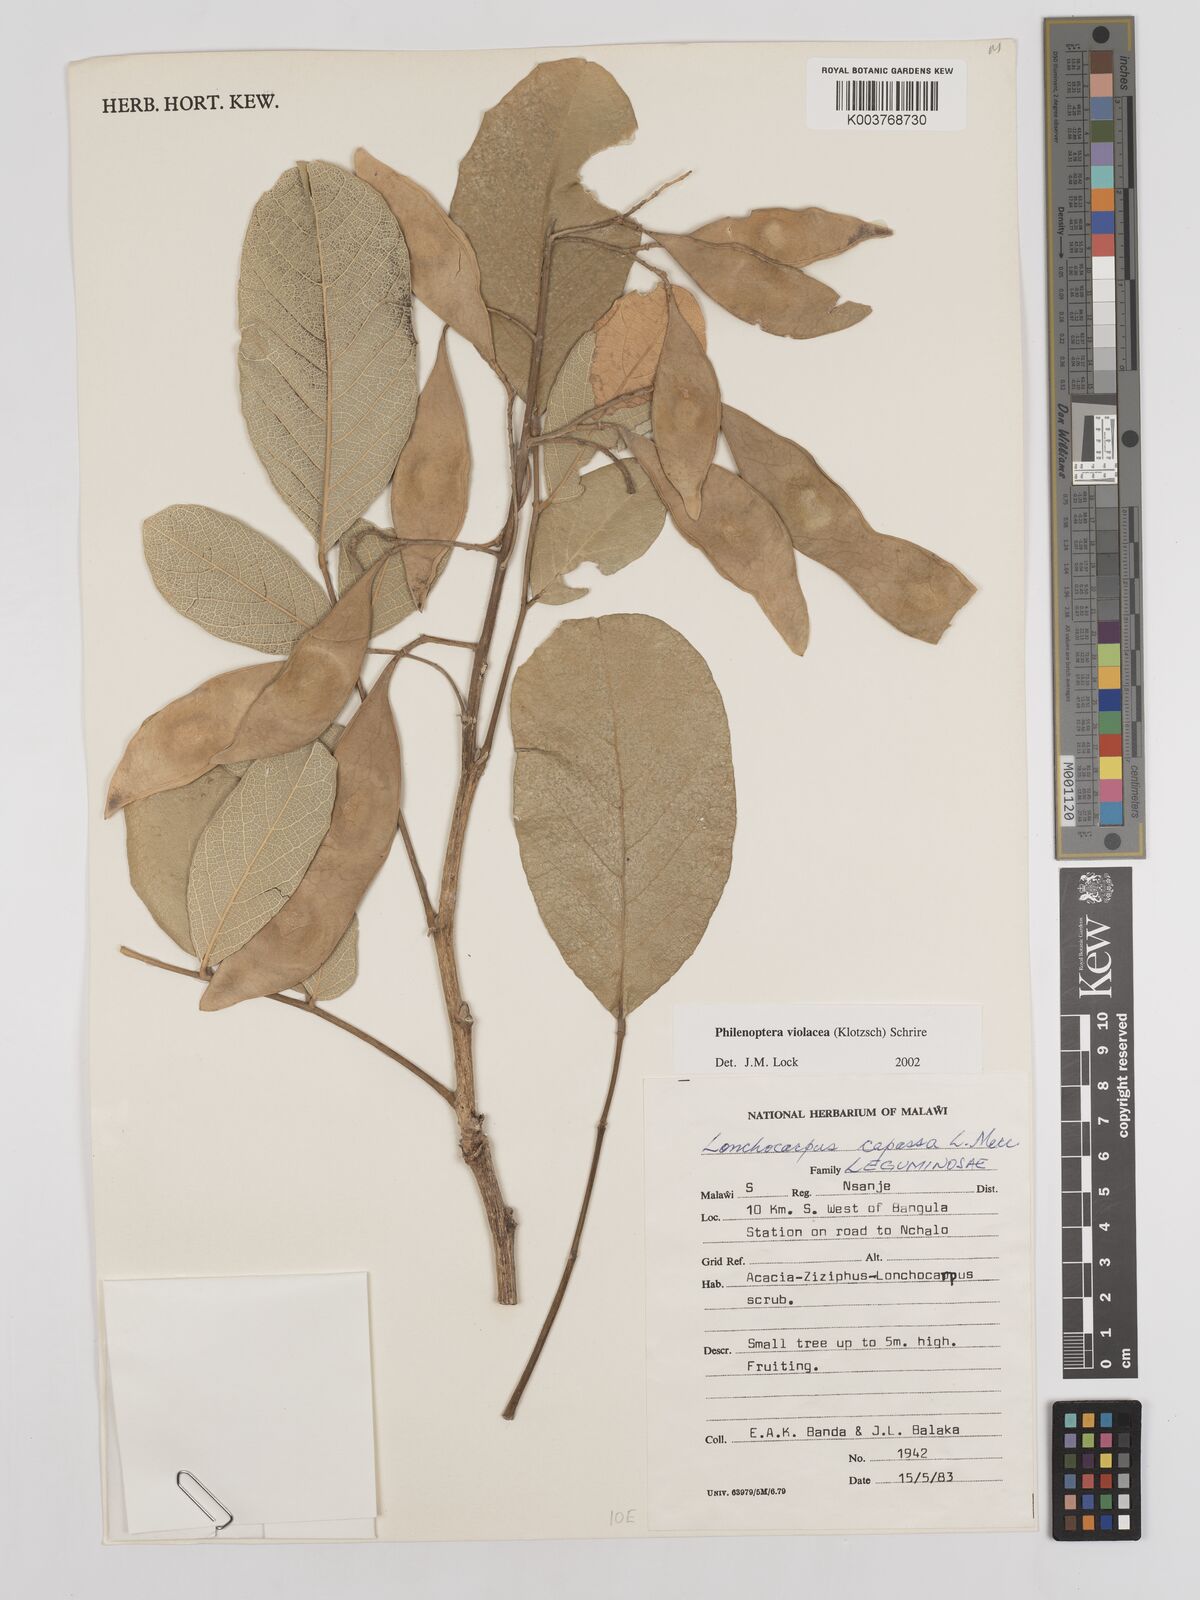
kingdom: Plantae
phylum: Tracheophyta
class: Magnoliopsida
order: Fabales
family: Fabaceae
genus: Philenoptera
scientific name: Philenoptera violacea
